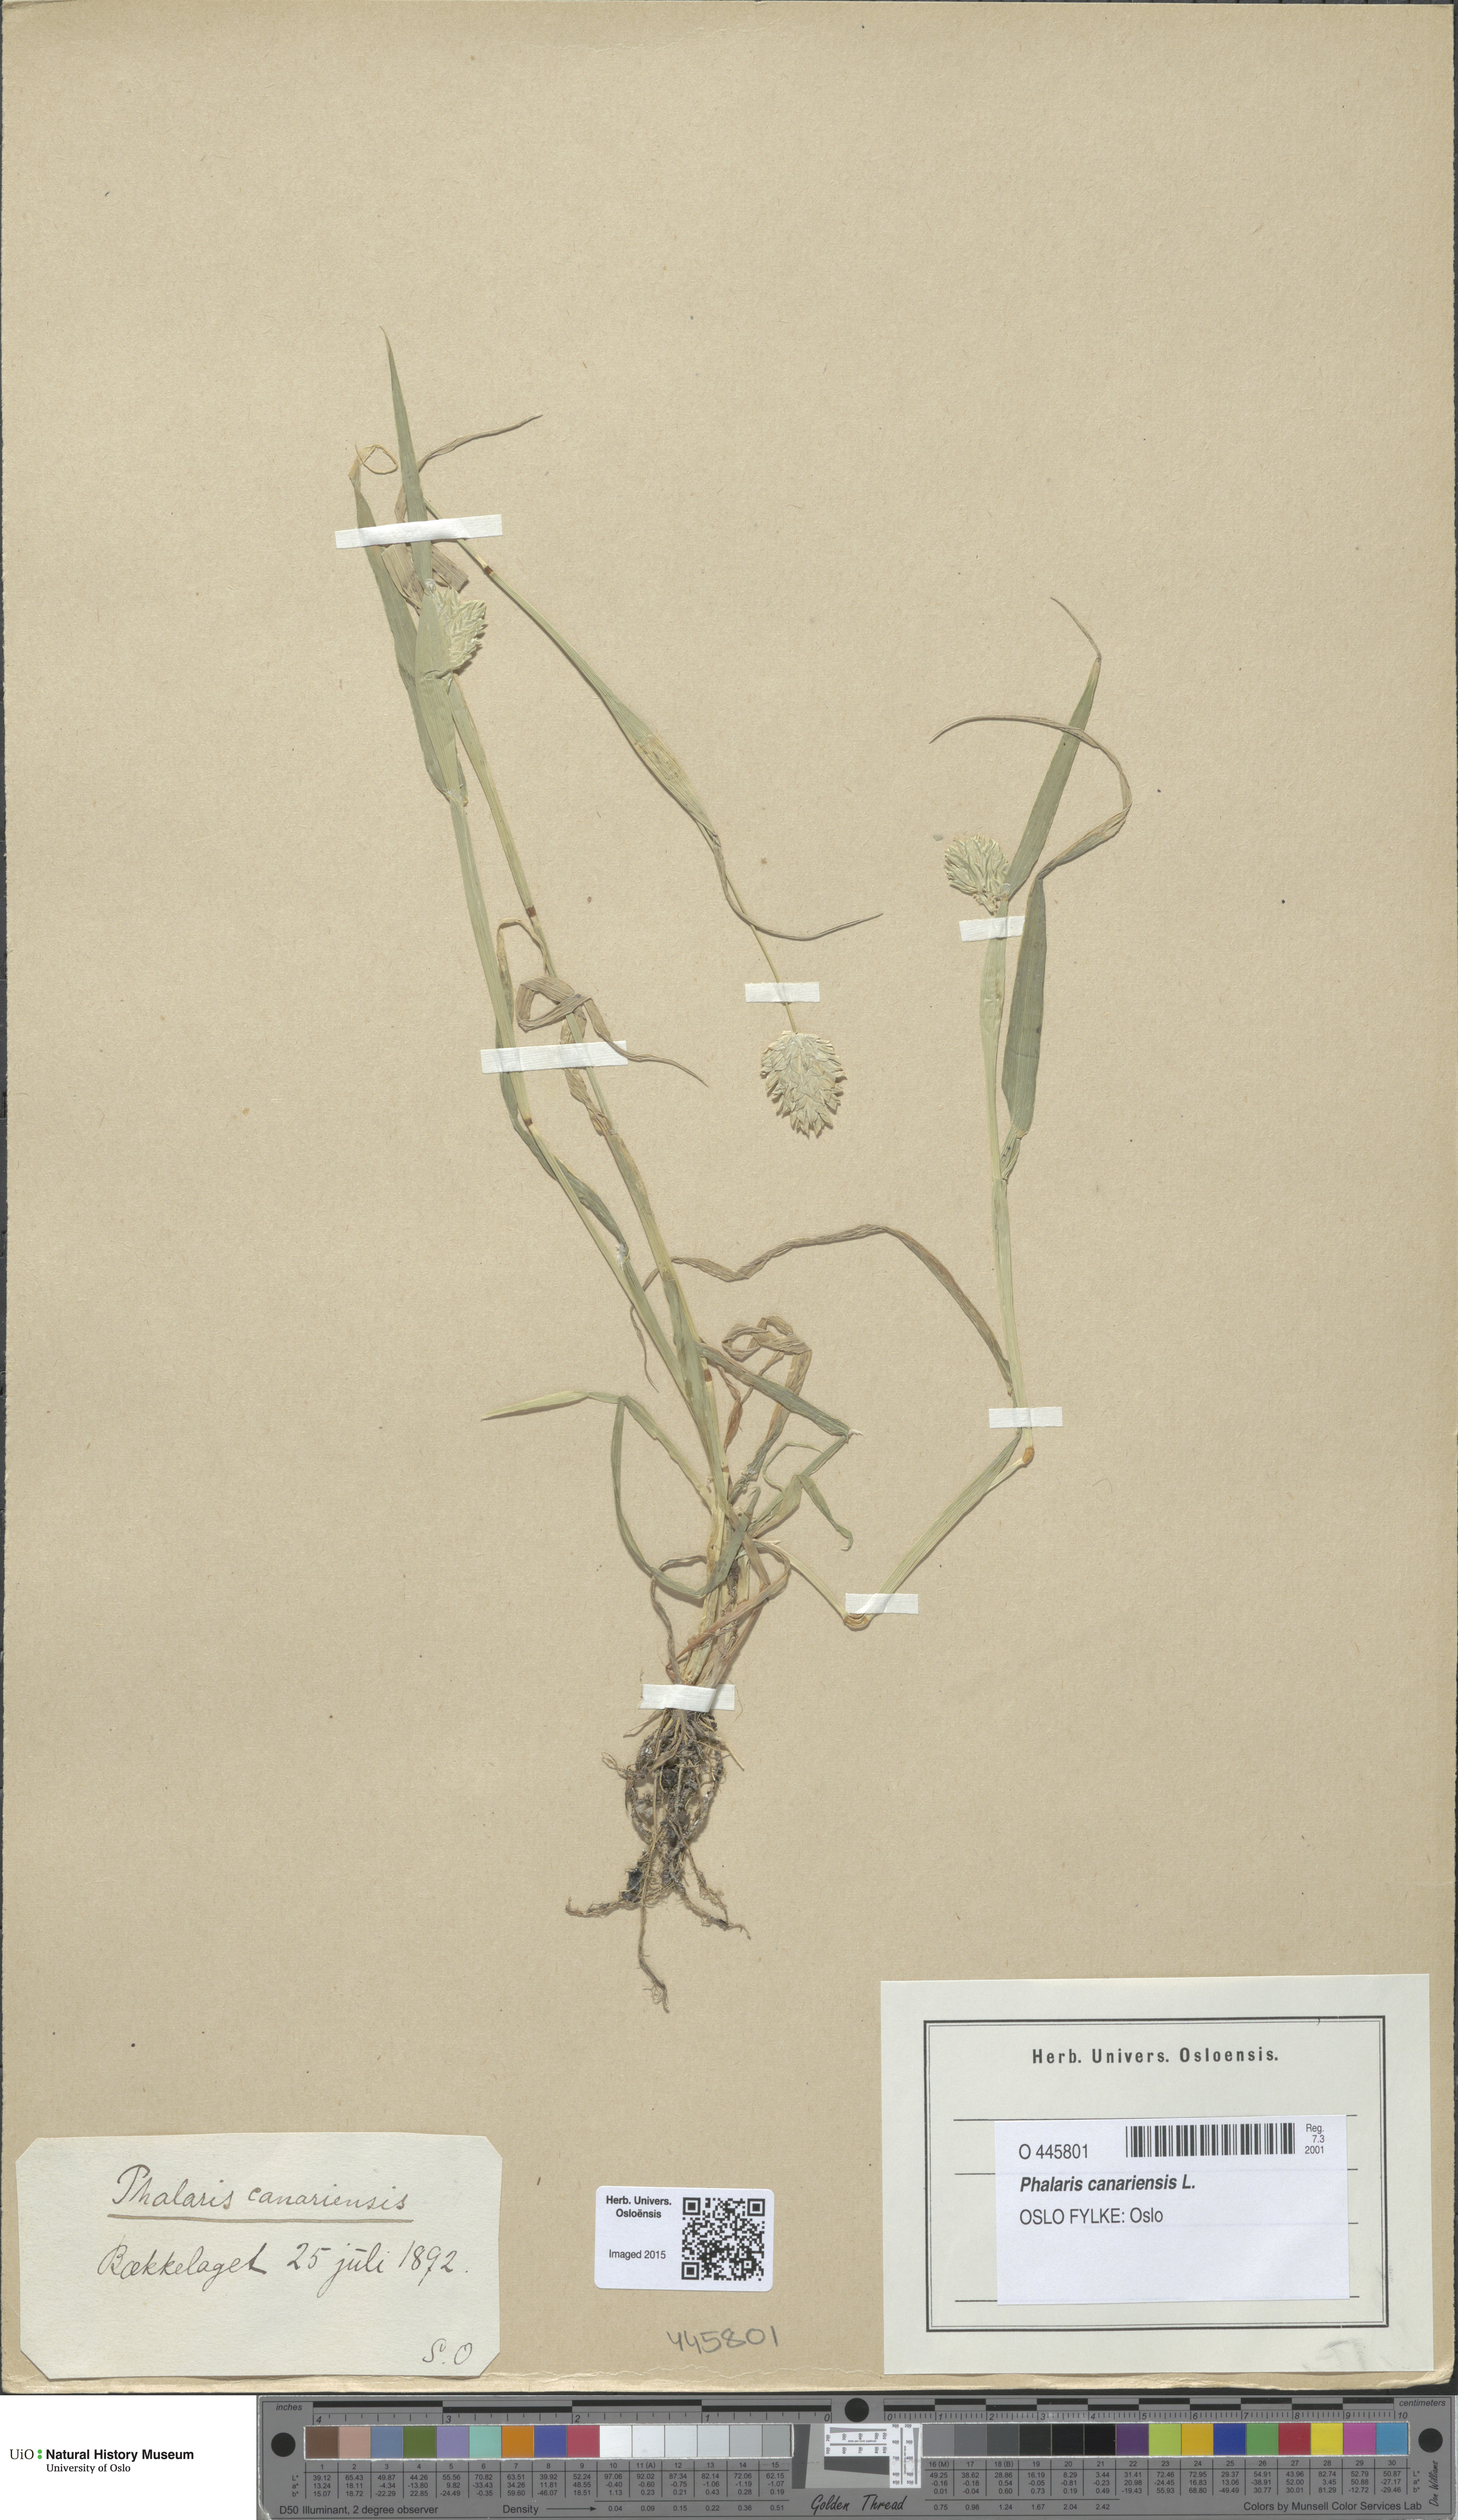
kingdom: Plantae
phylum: Tracheophyta
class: Liliopsida
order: Poales
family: Poaceae
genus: Phalaris
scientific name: Phalaris canariensis
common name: Annual canarygrass
